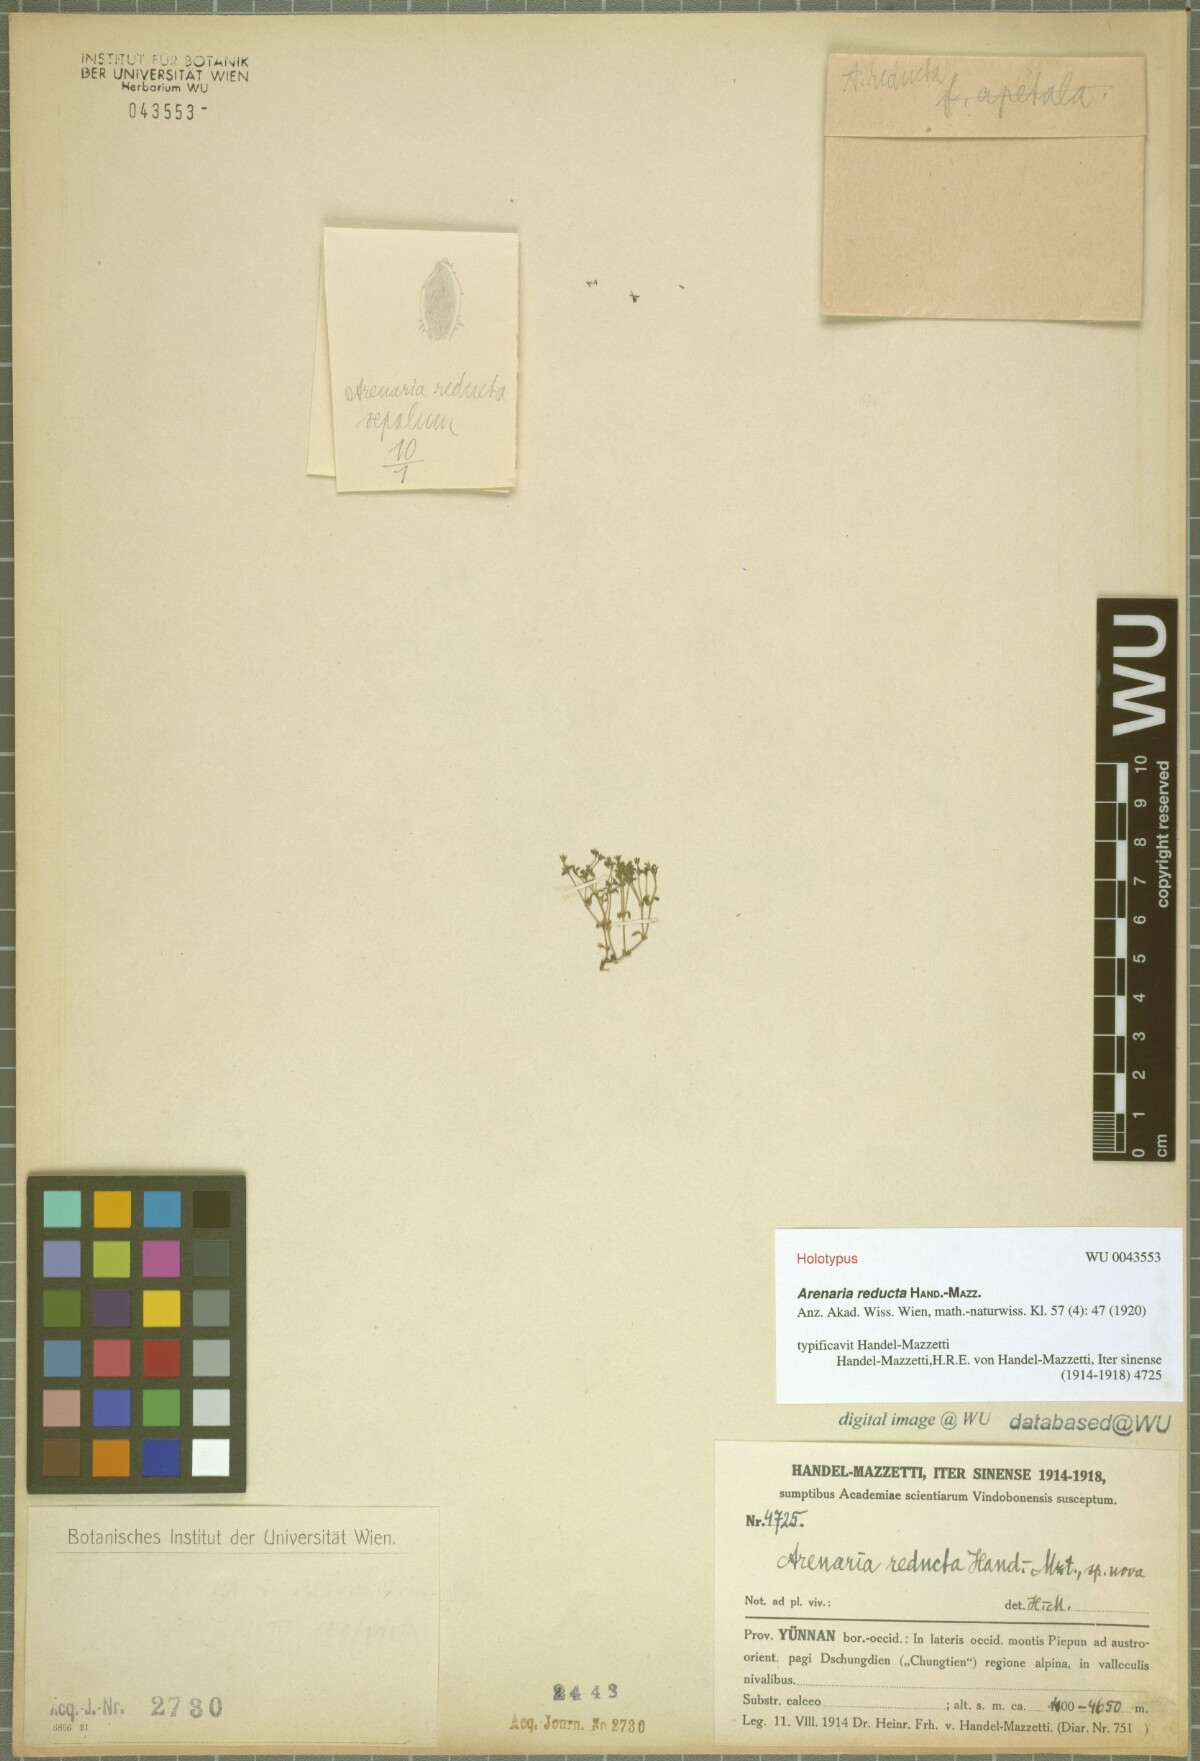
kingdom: Plantae
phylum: Tracheophyta
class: Magnoliopsida
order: Caryophyllales
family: Caryophyllaceae
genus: Odontostemma
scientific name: Odontostemma reductum
